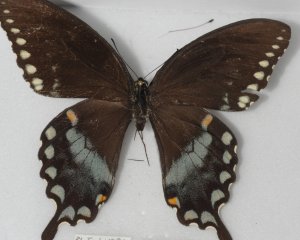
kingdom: Animalia
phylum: Arthropoda
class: Insecta
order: Lepidoptera
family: Papilionidae
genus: Pterourus
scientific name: Pterourus troilus
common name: Spicebush Swallowtail
